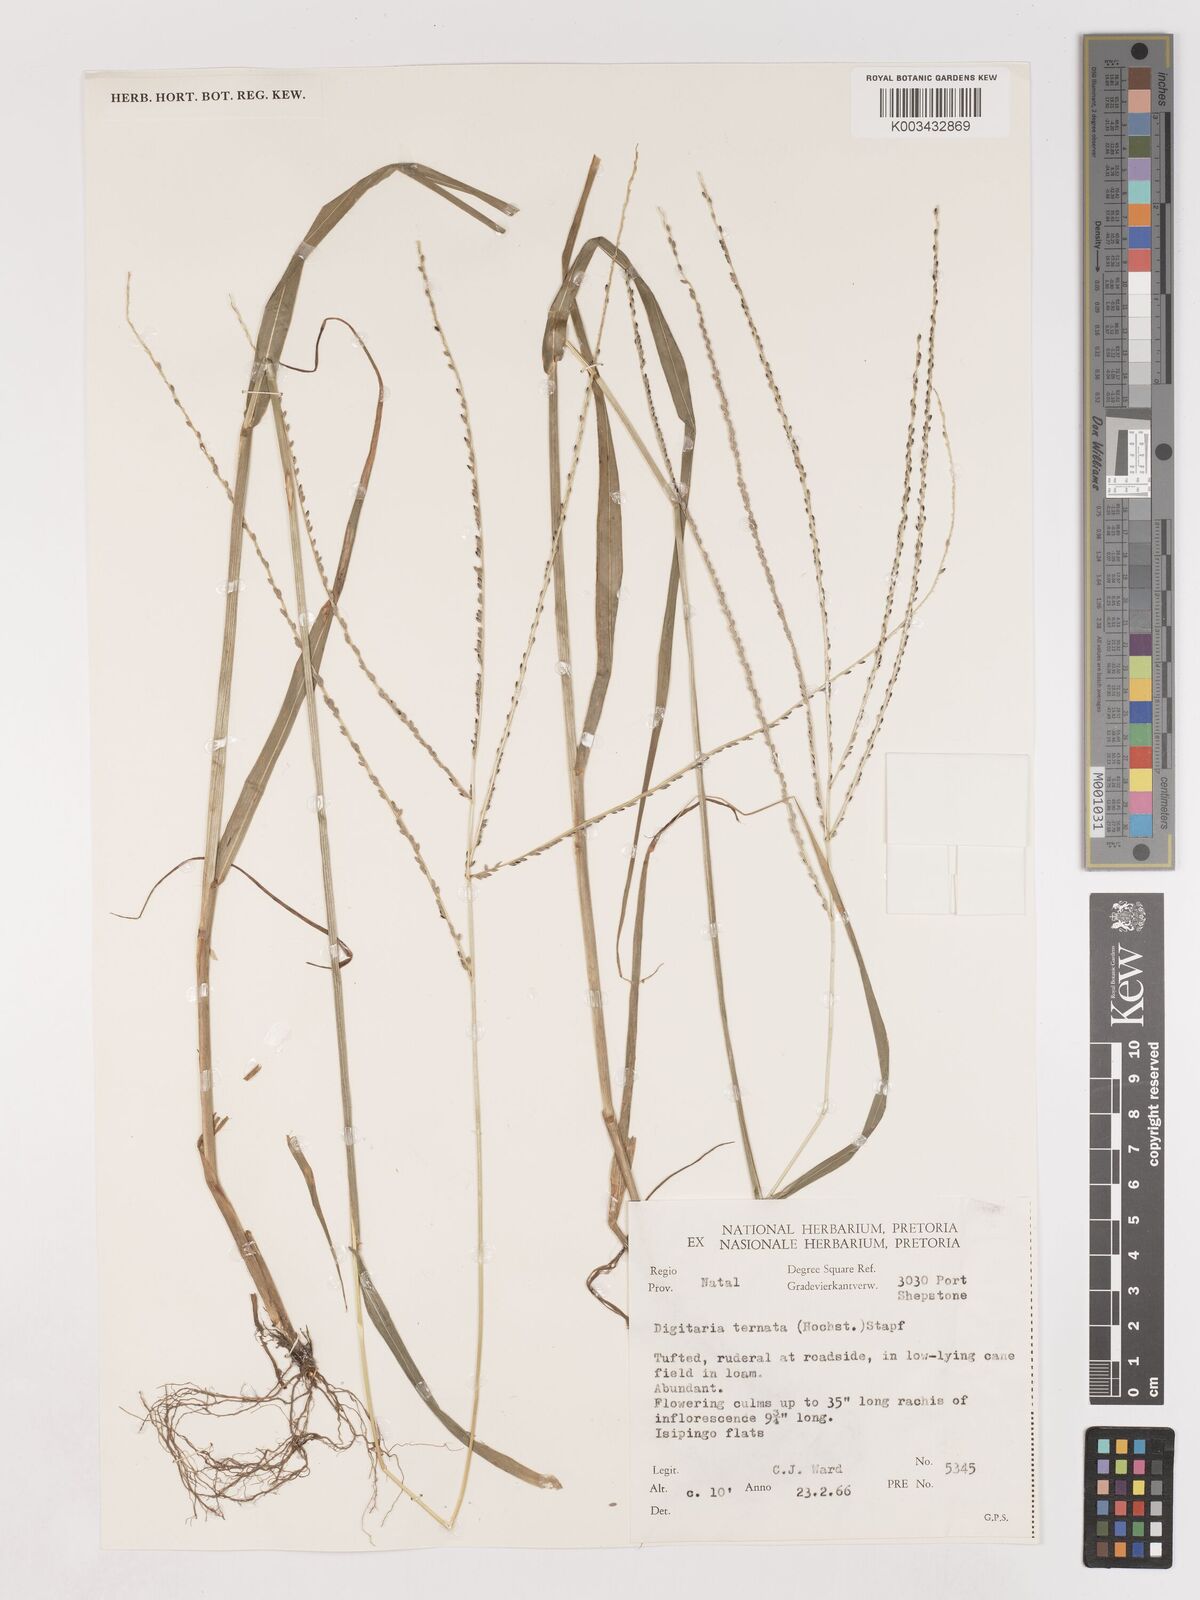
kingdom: Plantae
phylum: Tracheophyta
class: Liliopsida
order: Poales
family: Poaceae
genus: Digitaria
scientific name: Digitaria ternata
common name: Blackseed crabgrass
